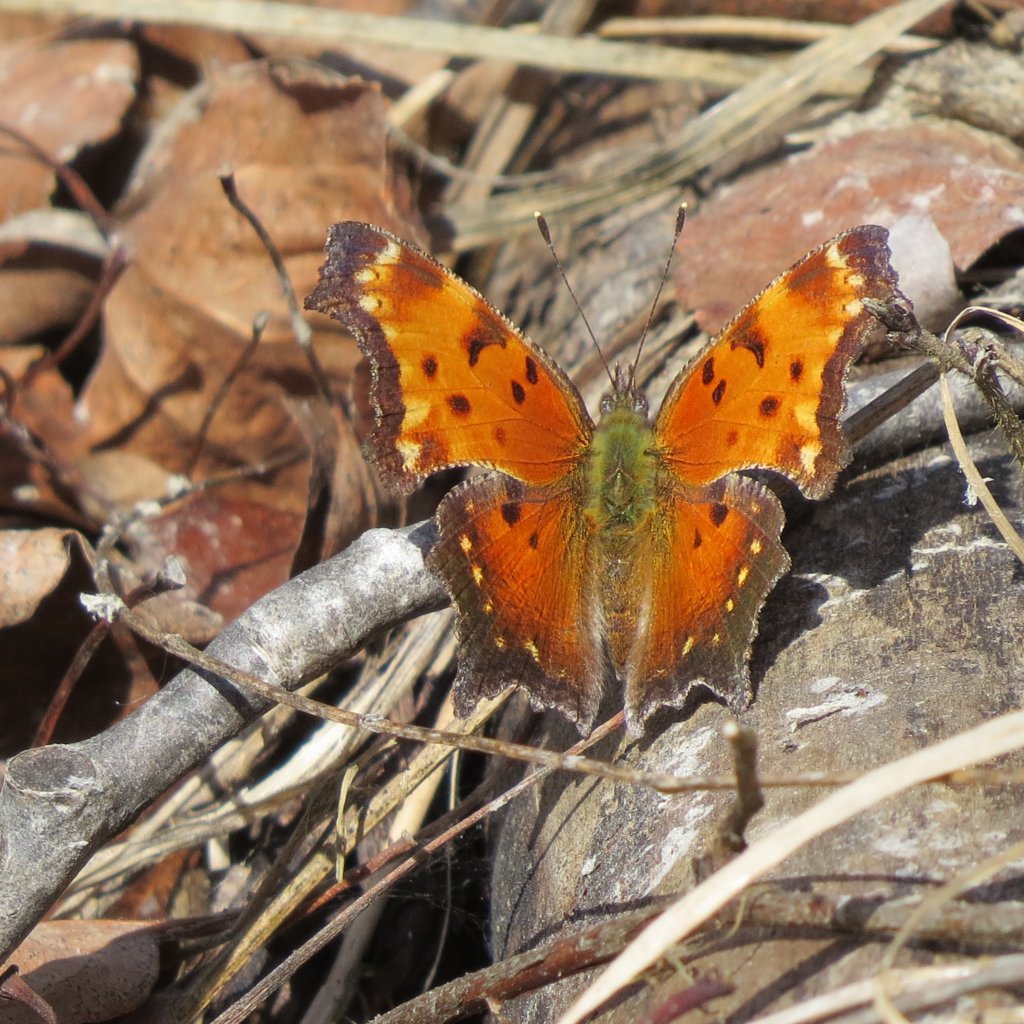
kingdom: Animalia
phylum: Arthropoda
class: Insecta
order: Lepidoptera
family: Nymphalidae
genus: Polygonia
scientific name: Polygonia gracilis
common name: Hoary Comma
